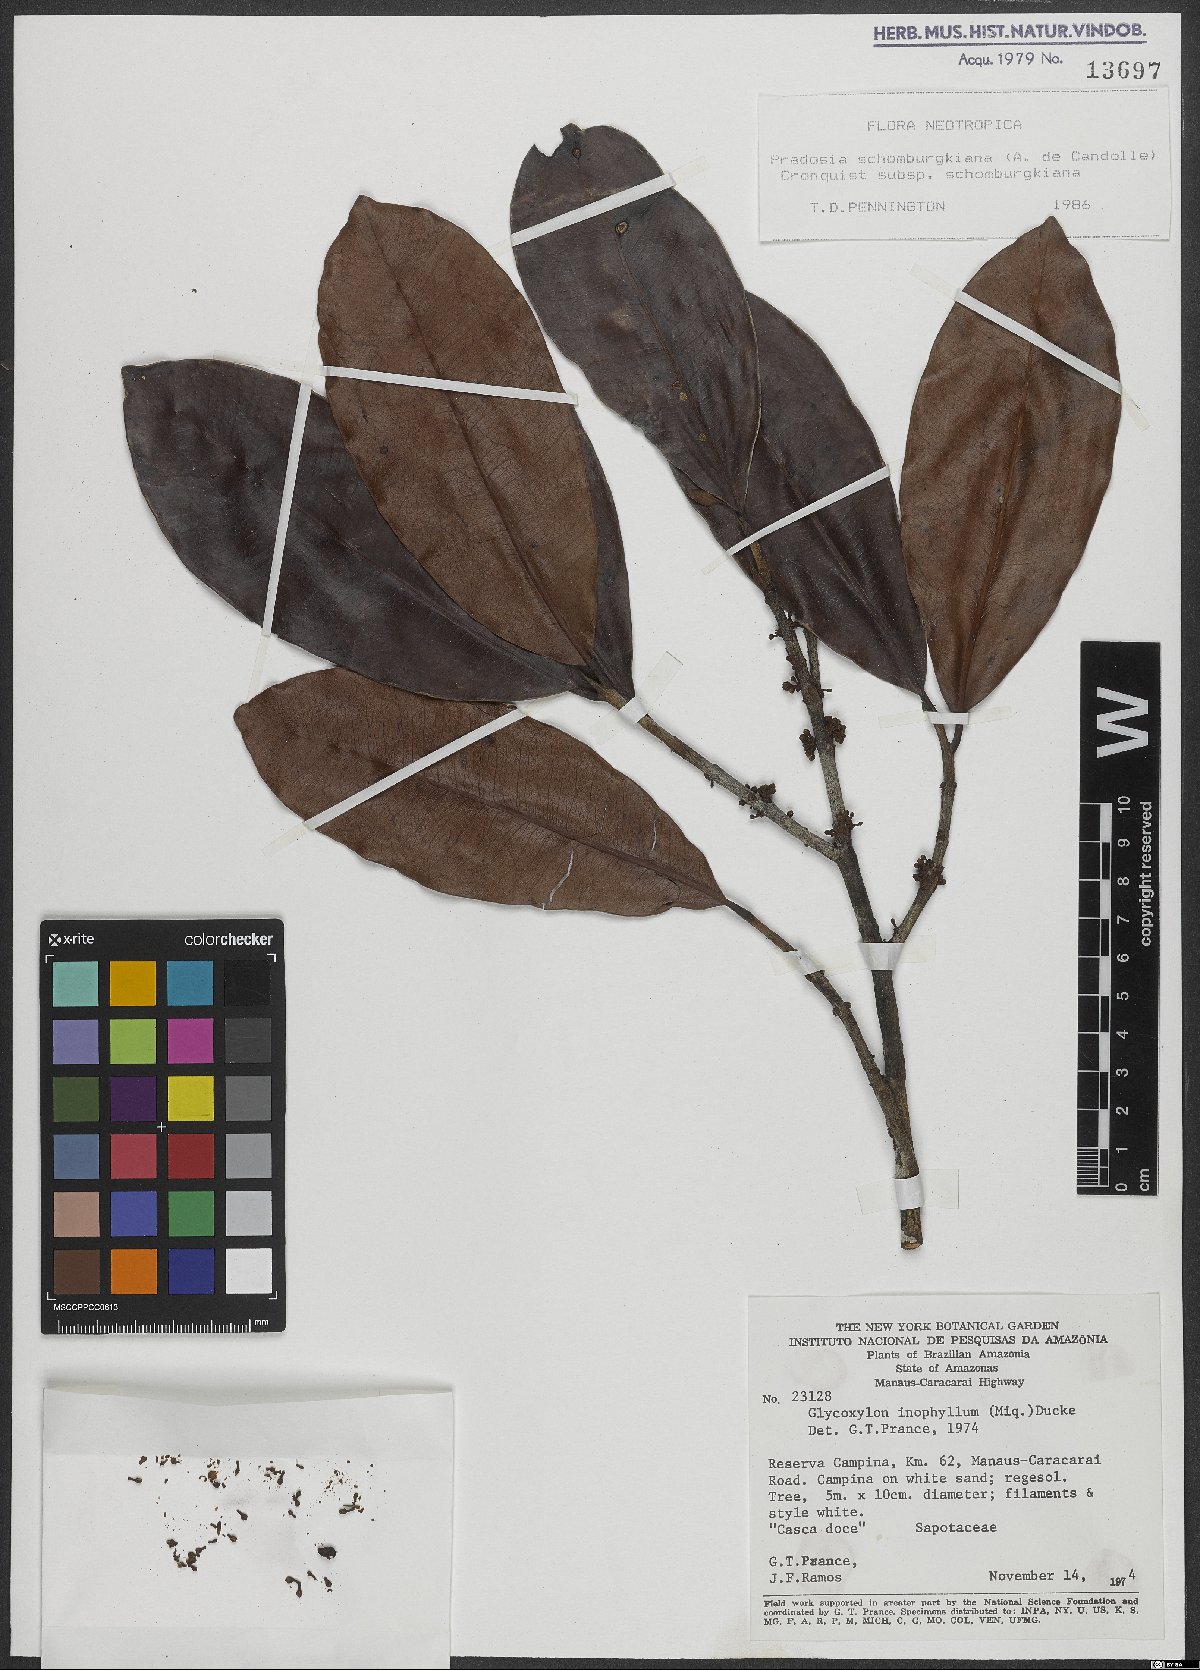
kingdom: Plantae
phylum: Tracheophyta
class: Magnoliopsida
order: Ericales
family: Sapotaceae
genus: Pradosia
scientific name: Pradosia schomburgkiana
